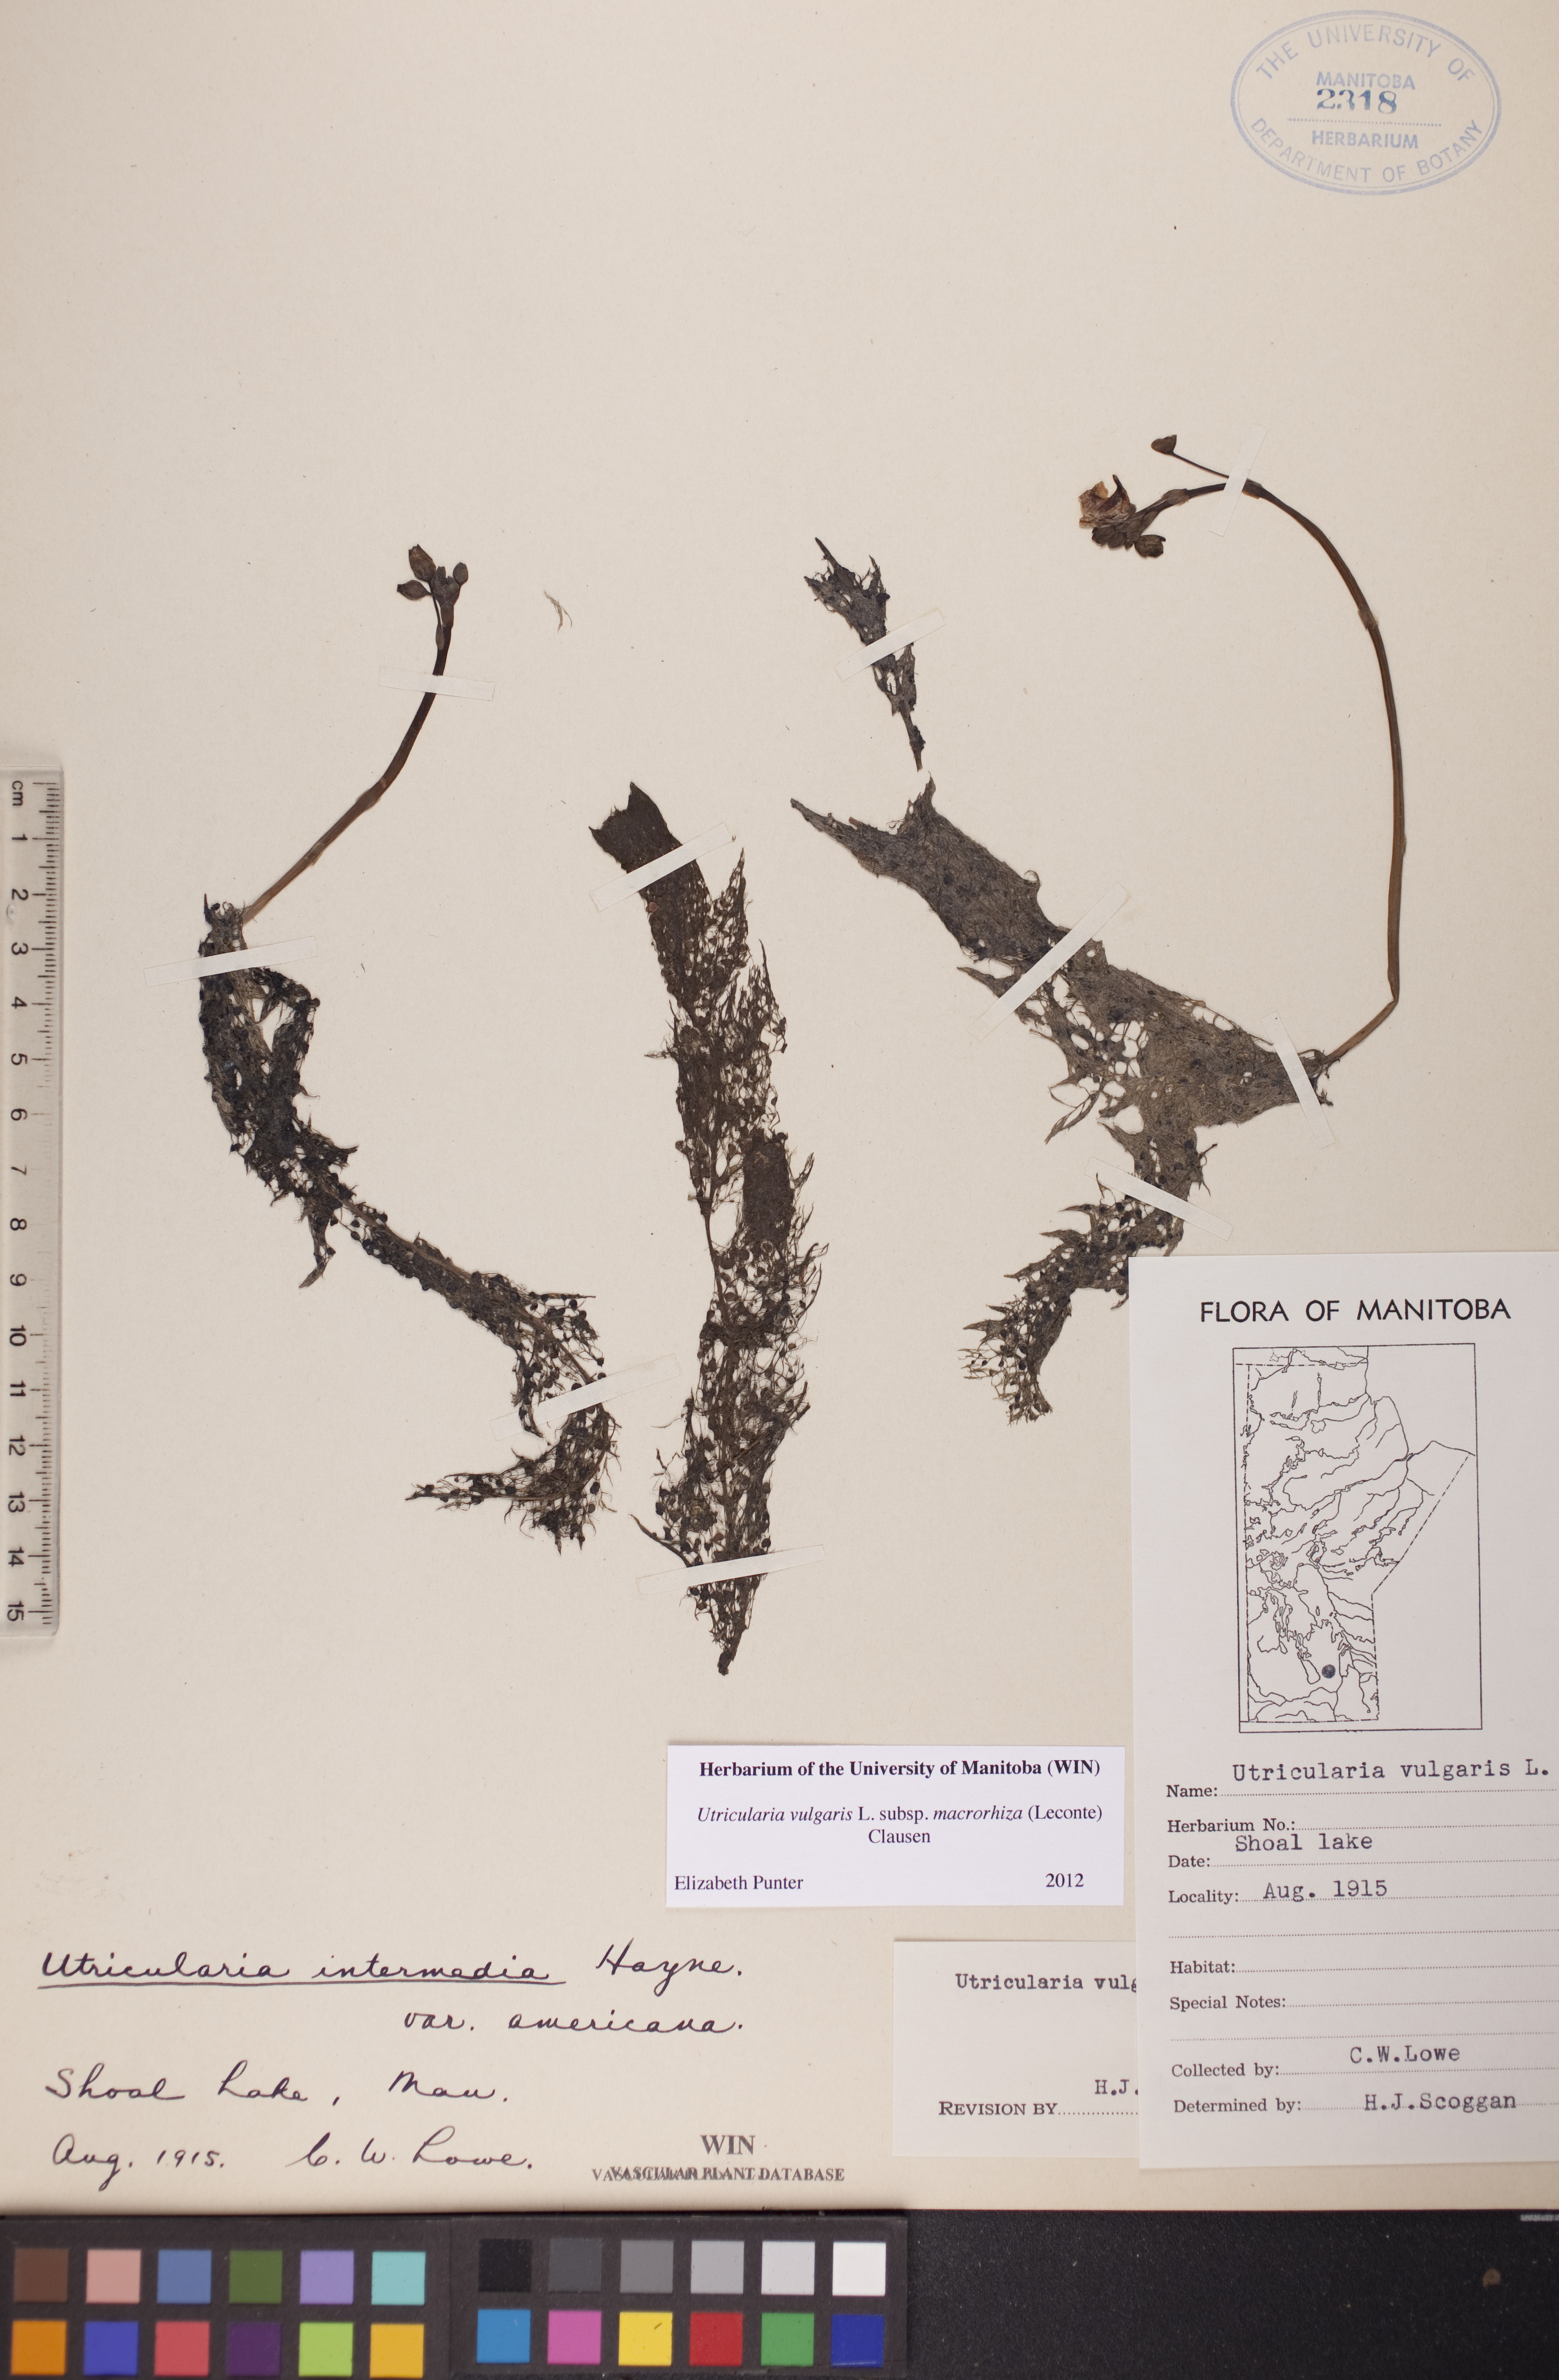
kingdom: Plantae
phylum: Tracheophyta
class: Magnoliopsida
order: Lamiales
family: Lentibulariaceae
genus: Utricularia
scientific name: Utricularia macrorhiza
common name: Common bladderwort
